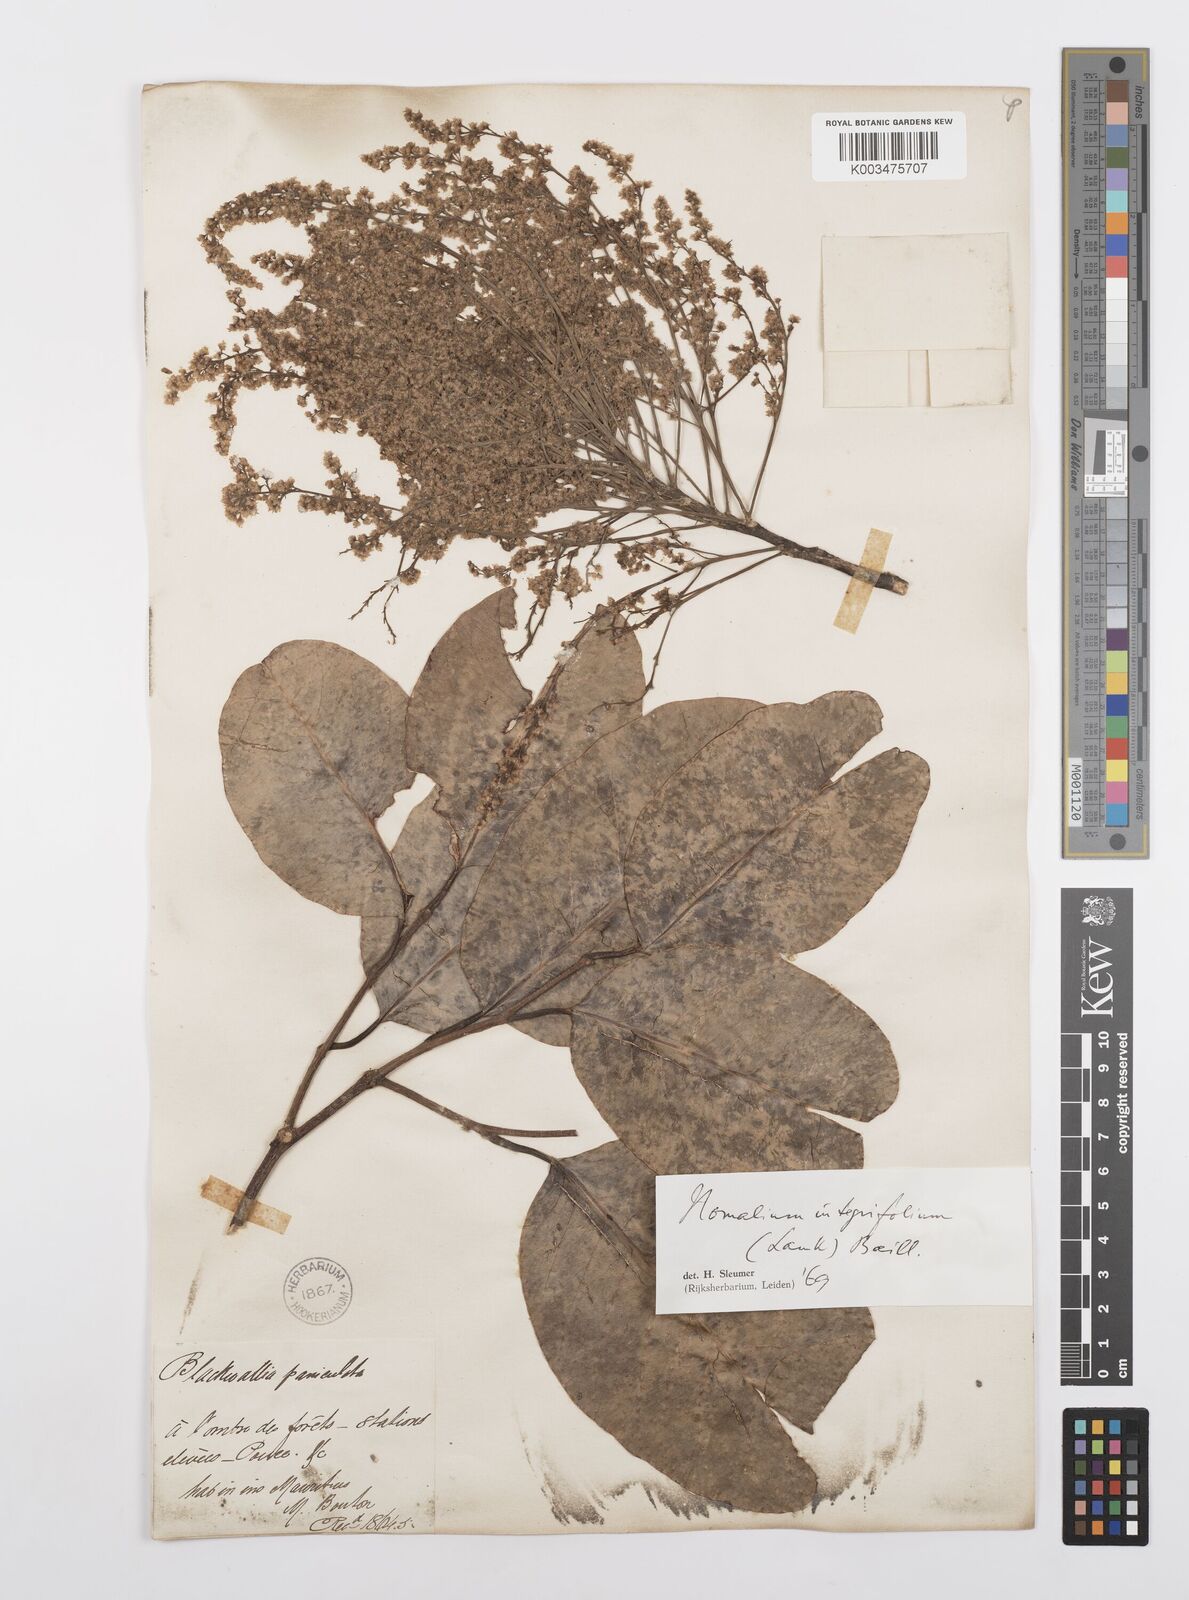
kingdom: Plantae
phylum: Tracheophyta
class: Magnoliopsida
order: Malpighiales
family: Salicaceae
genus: Homalium
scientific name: Homalium integrifolium
